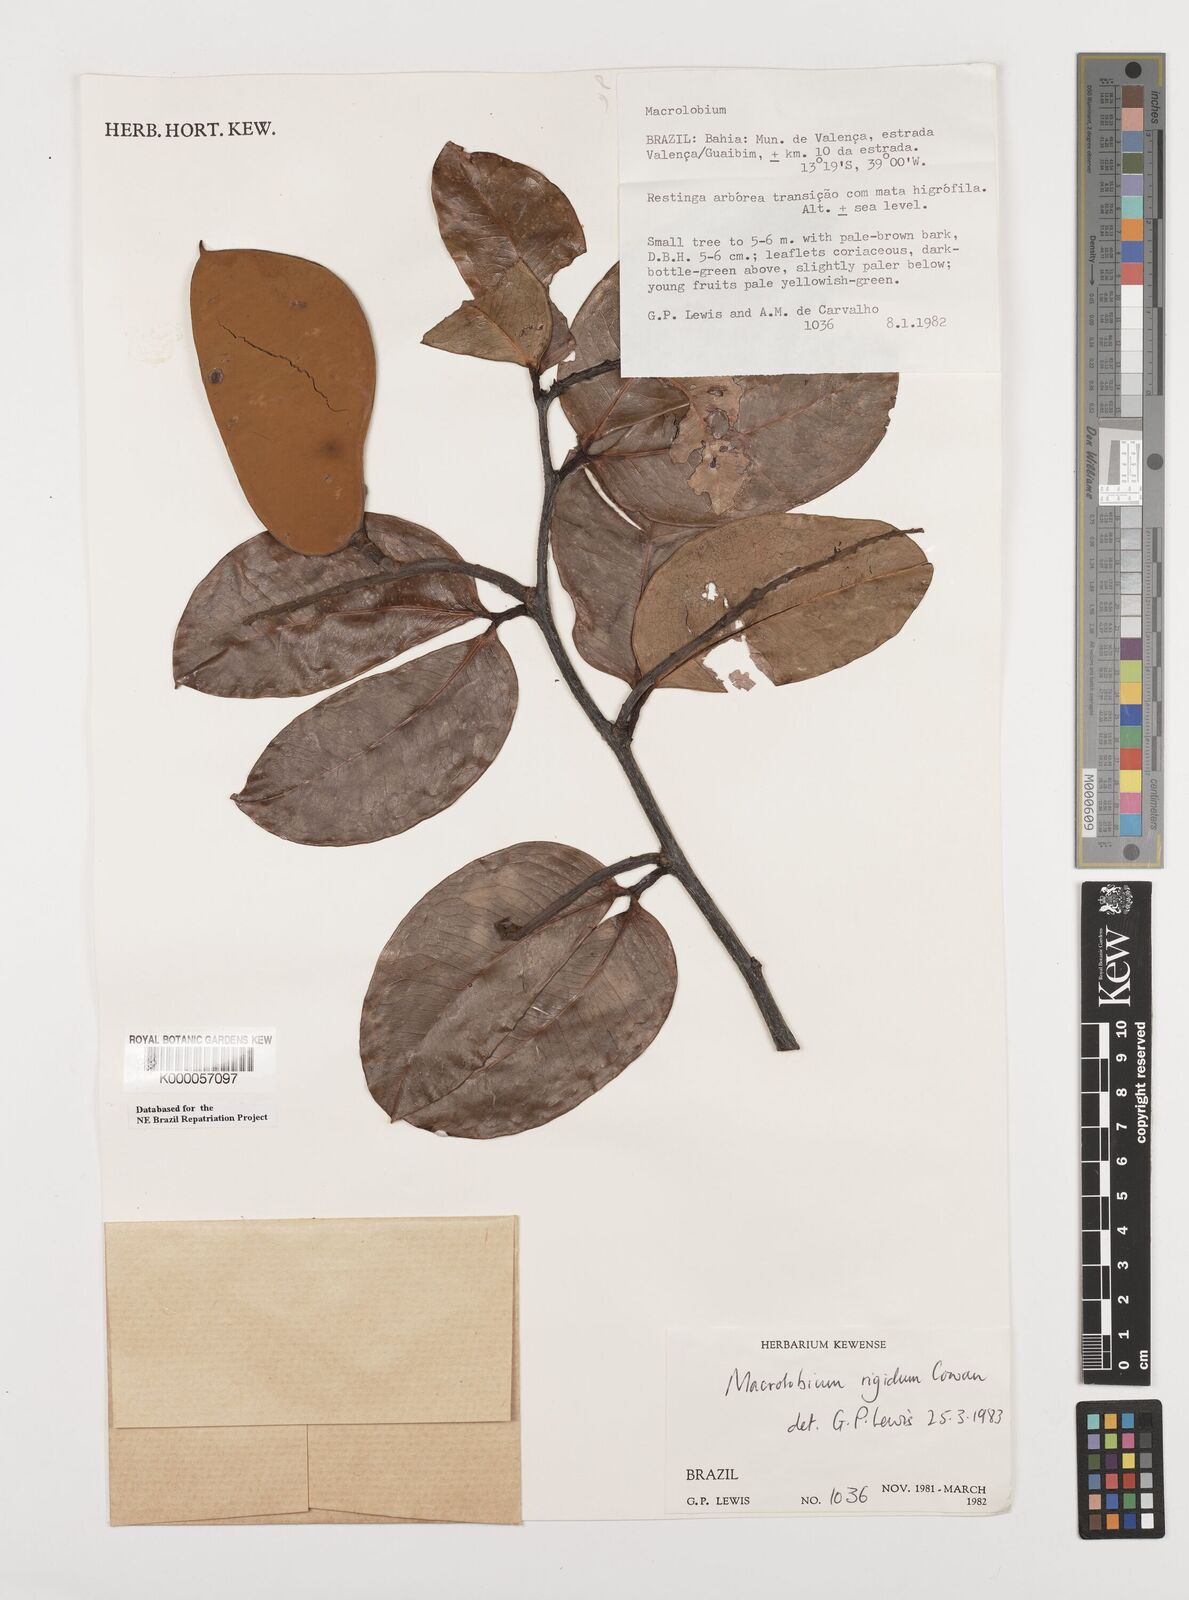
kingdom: Plantae
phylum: Tracheophyta
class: Magnoliopsida
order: Fabales
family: Fabaceae
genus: Macrolobium
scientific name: Macrolobium rigidum
